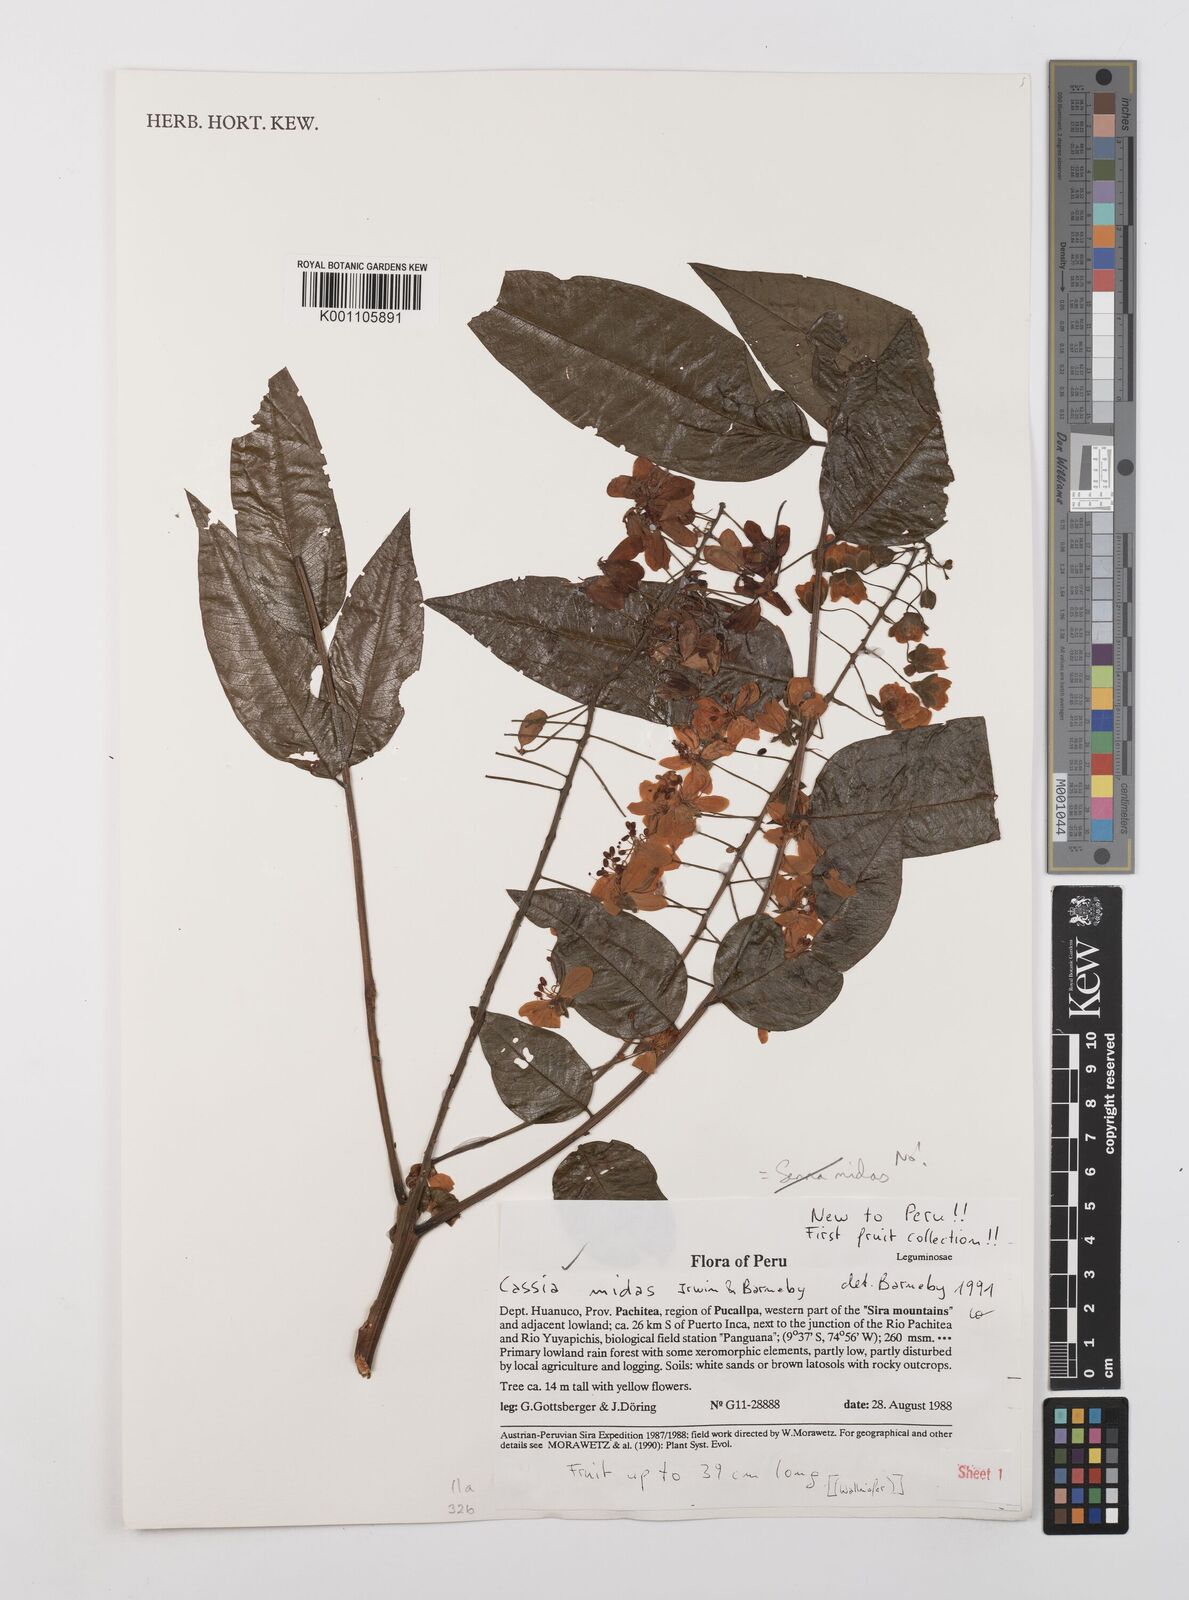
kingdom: Plantae
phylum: Tracheophyta
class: Magnoliopsida
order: Fabales
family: Fabaceae
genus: Cassia
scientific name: Cassia midas
